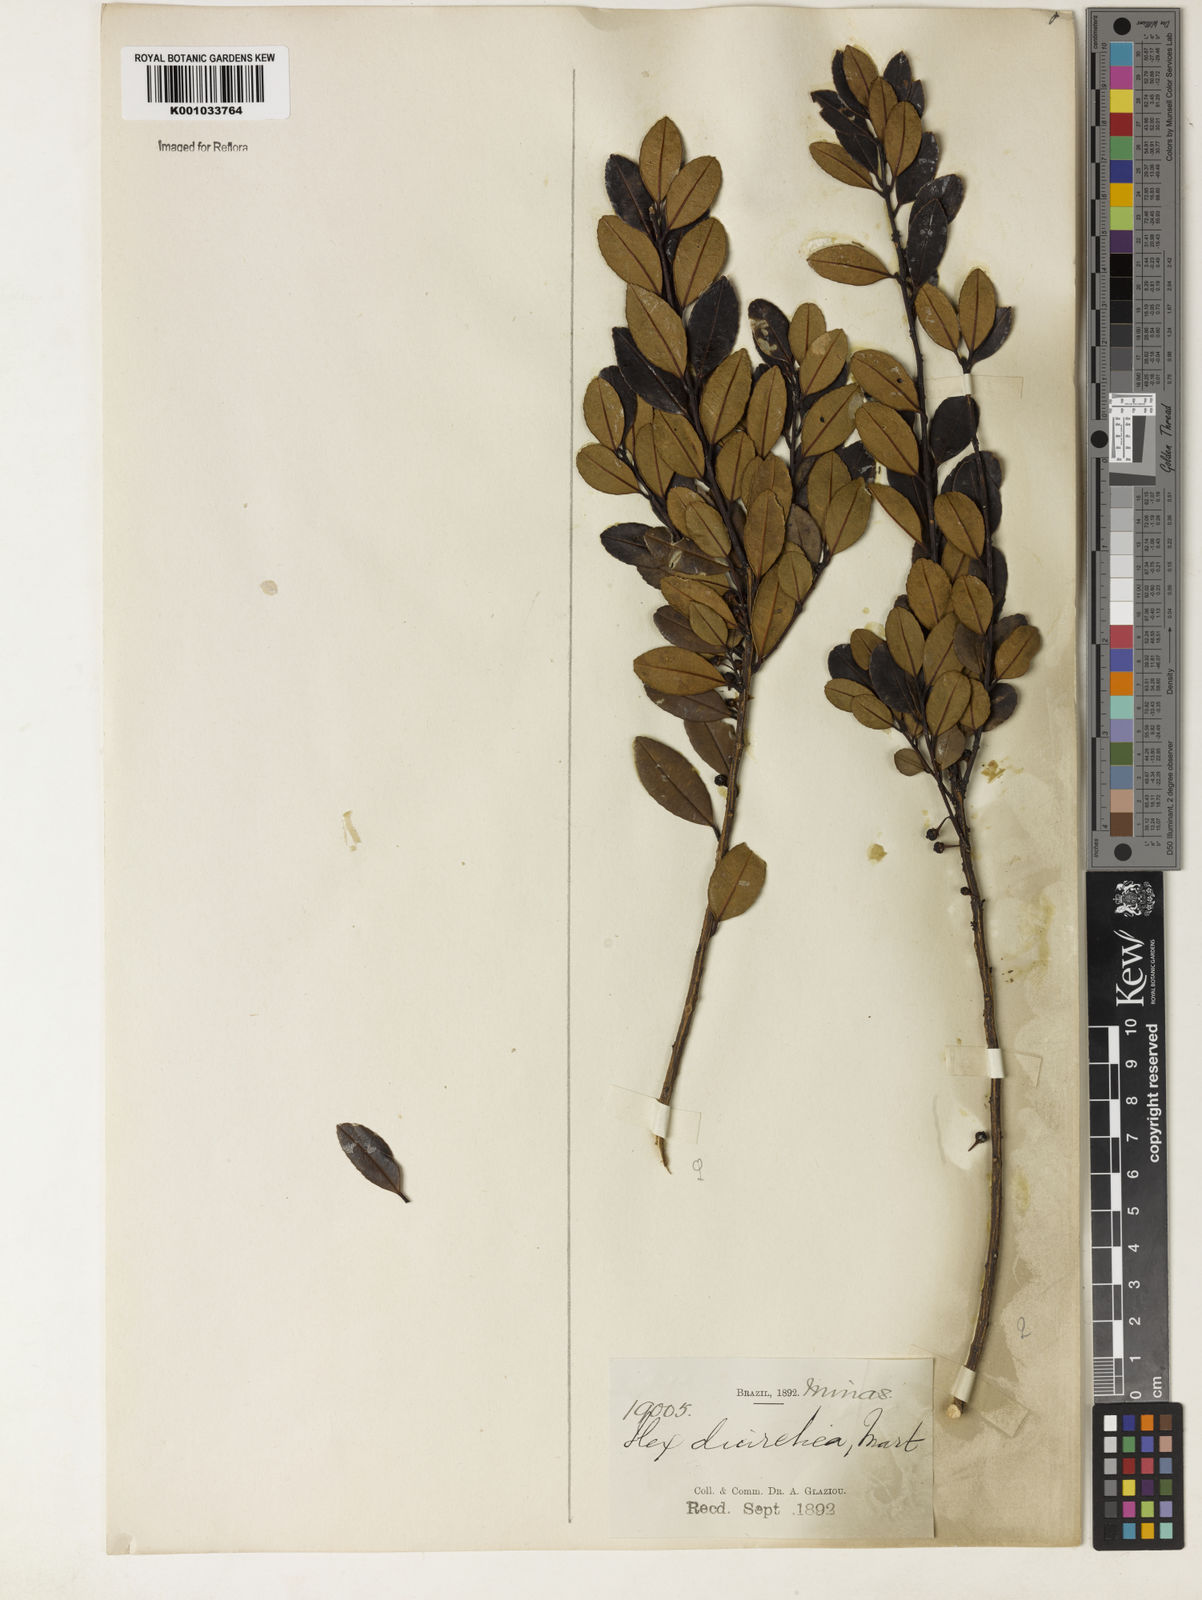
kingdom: Plantae
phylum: Tracheophyta
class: Magnoliopsida
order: Aquifoliales
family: Aquifoliaceae
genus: Ilex
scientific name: Ilex diuretica
